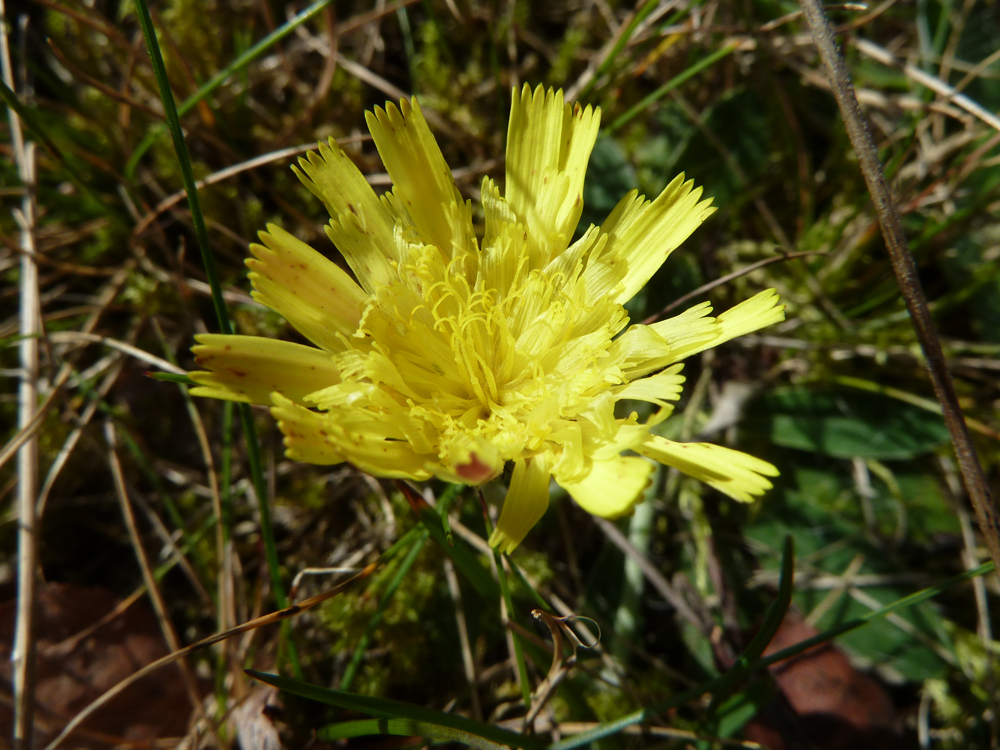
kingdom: Plantae
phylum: Tracheophyta
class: Magnoliopsida
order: Asterales
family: Asteraceae
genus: Pilosella
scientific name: Pilosella officinarum
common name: Mouse-ear hawkweed
